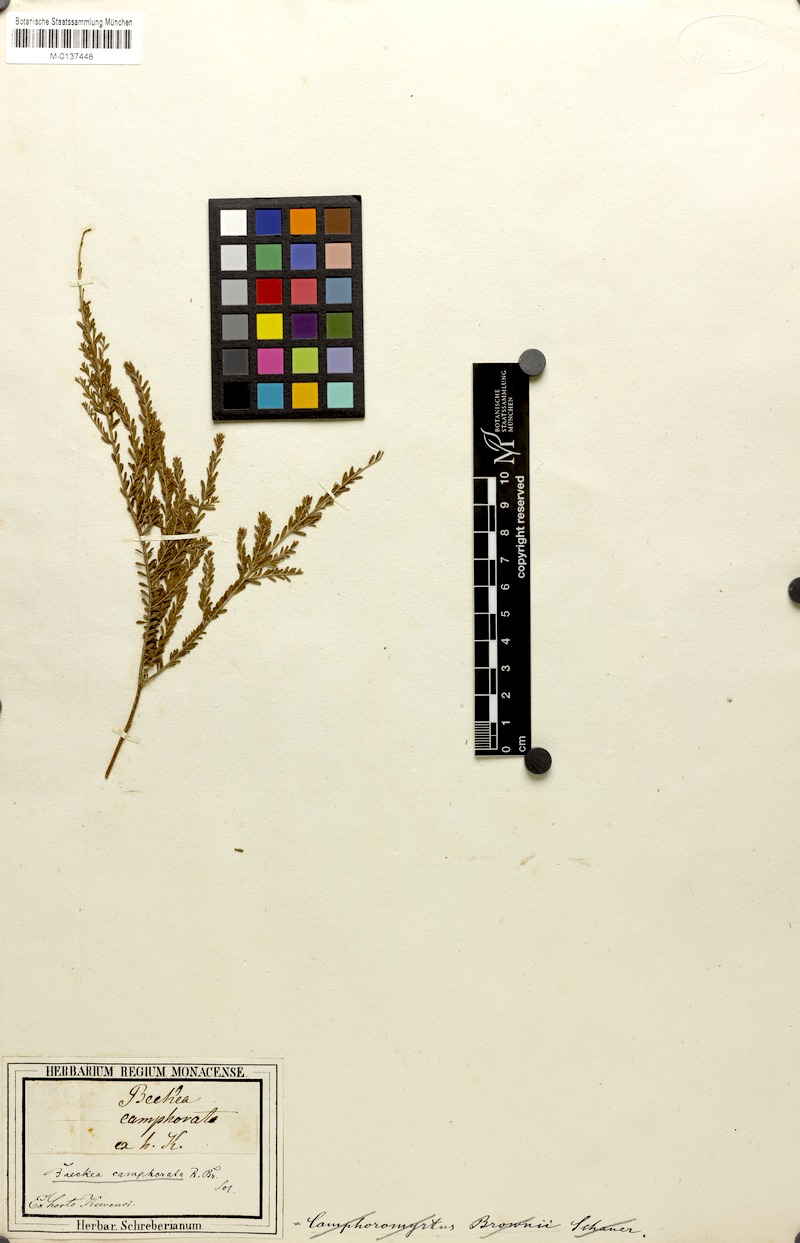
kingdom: Plantae
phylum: Tracheophyta
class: Magnoliopsida
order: Myrtales
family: Myrtaceae
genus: Triplarina
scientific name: Triplarina imbricata
